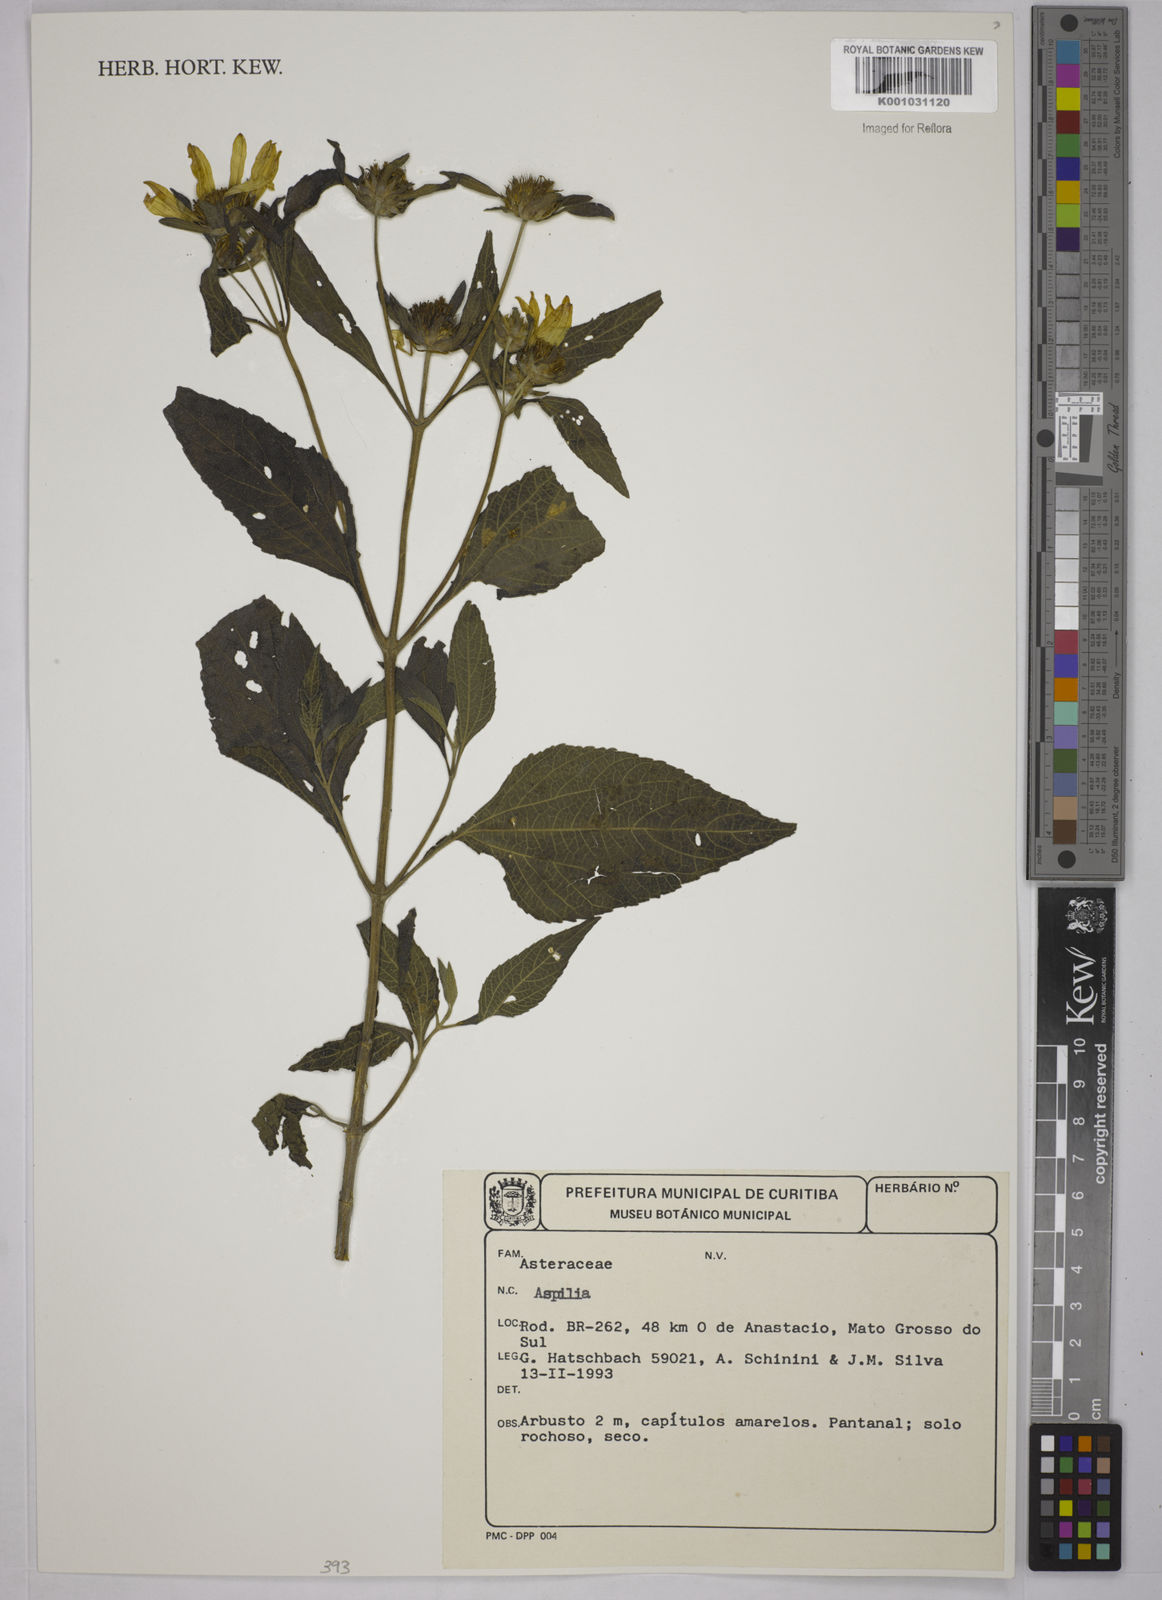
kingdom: Plantae
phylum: Tracheophyta
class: Magnoliopsida
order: Asterales
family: Asteraceae
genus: Aspilia
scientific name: Aspilia
